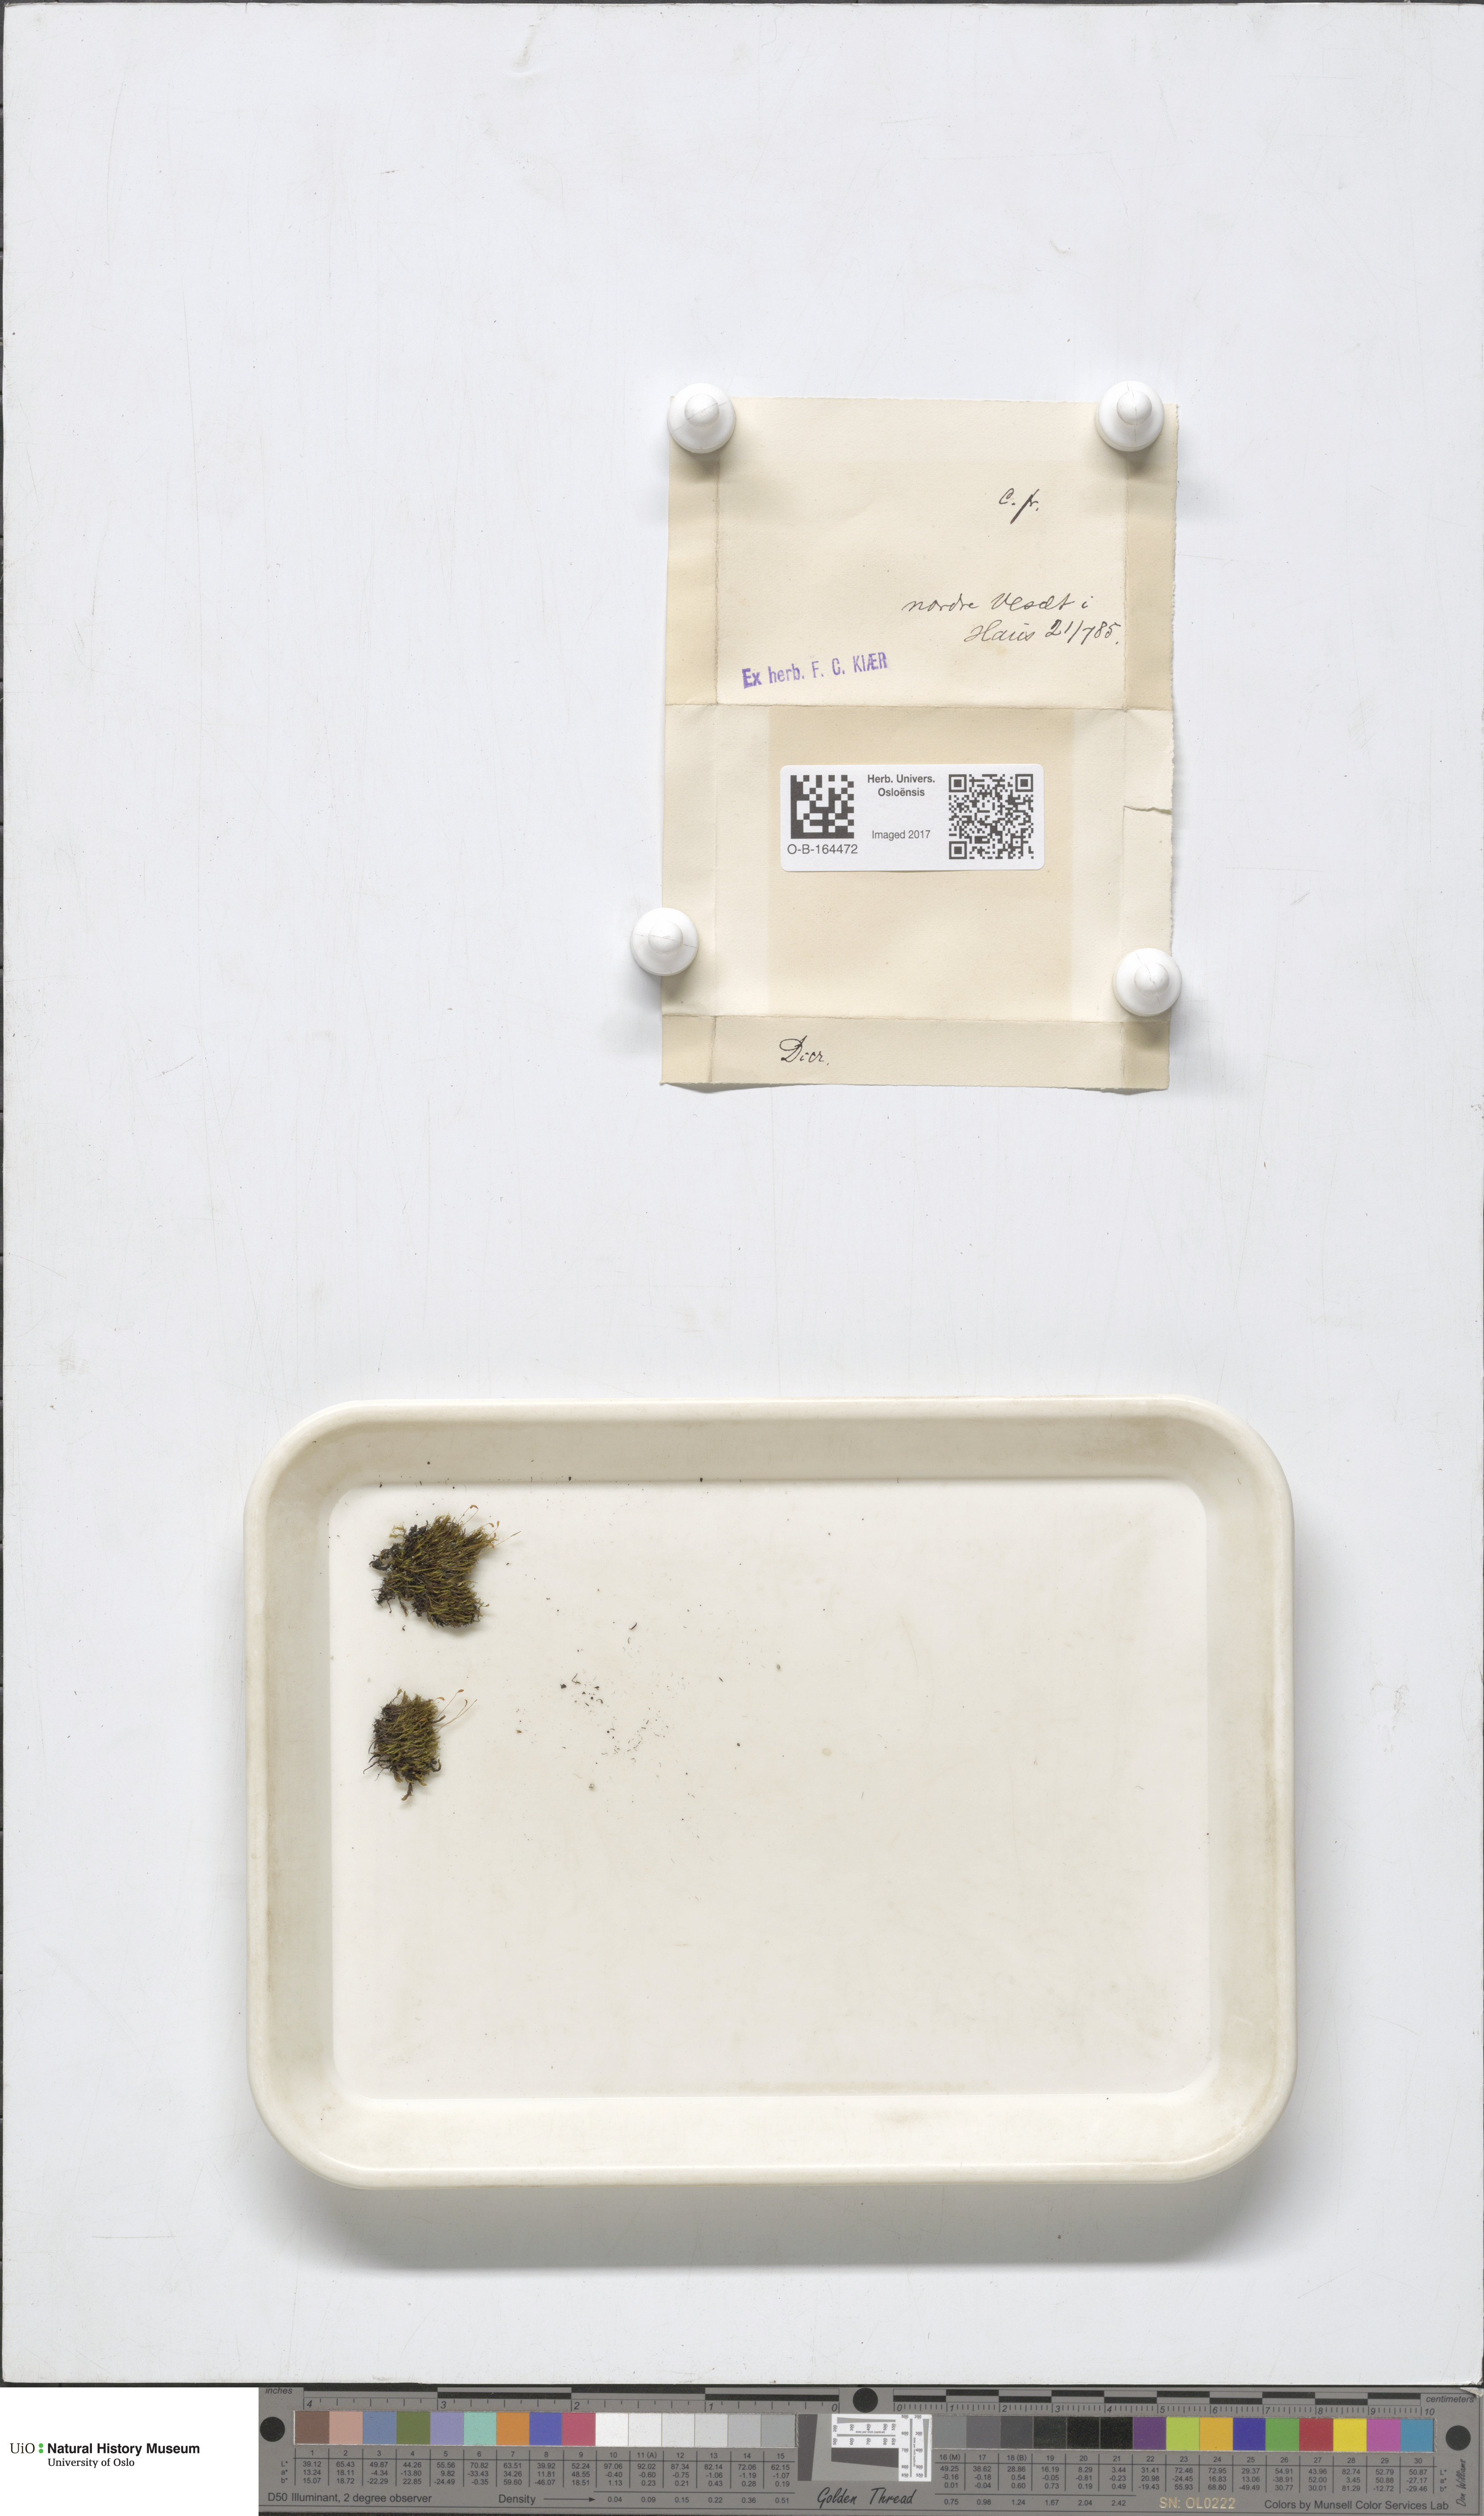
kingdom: Plantae
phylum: Bryophyta
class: Bryopsida
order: Dicranales
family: Dicranaceae
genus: Dicranum
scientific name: Dicranum
